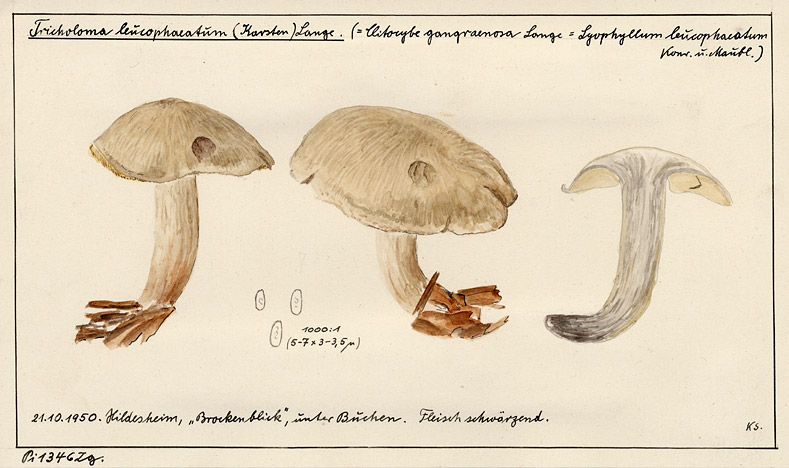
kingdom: Fungi
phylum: Basidiomycota
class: Agaricomycetes
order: Agaricales
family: Lyophyllaceae
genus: Calocybe
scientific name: Calocybe gangraenosa
